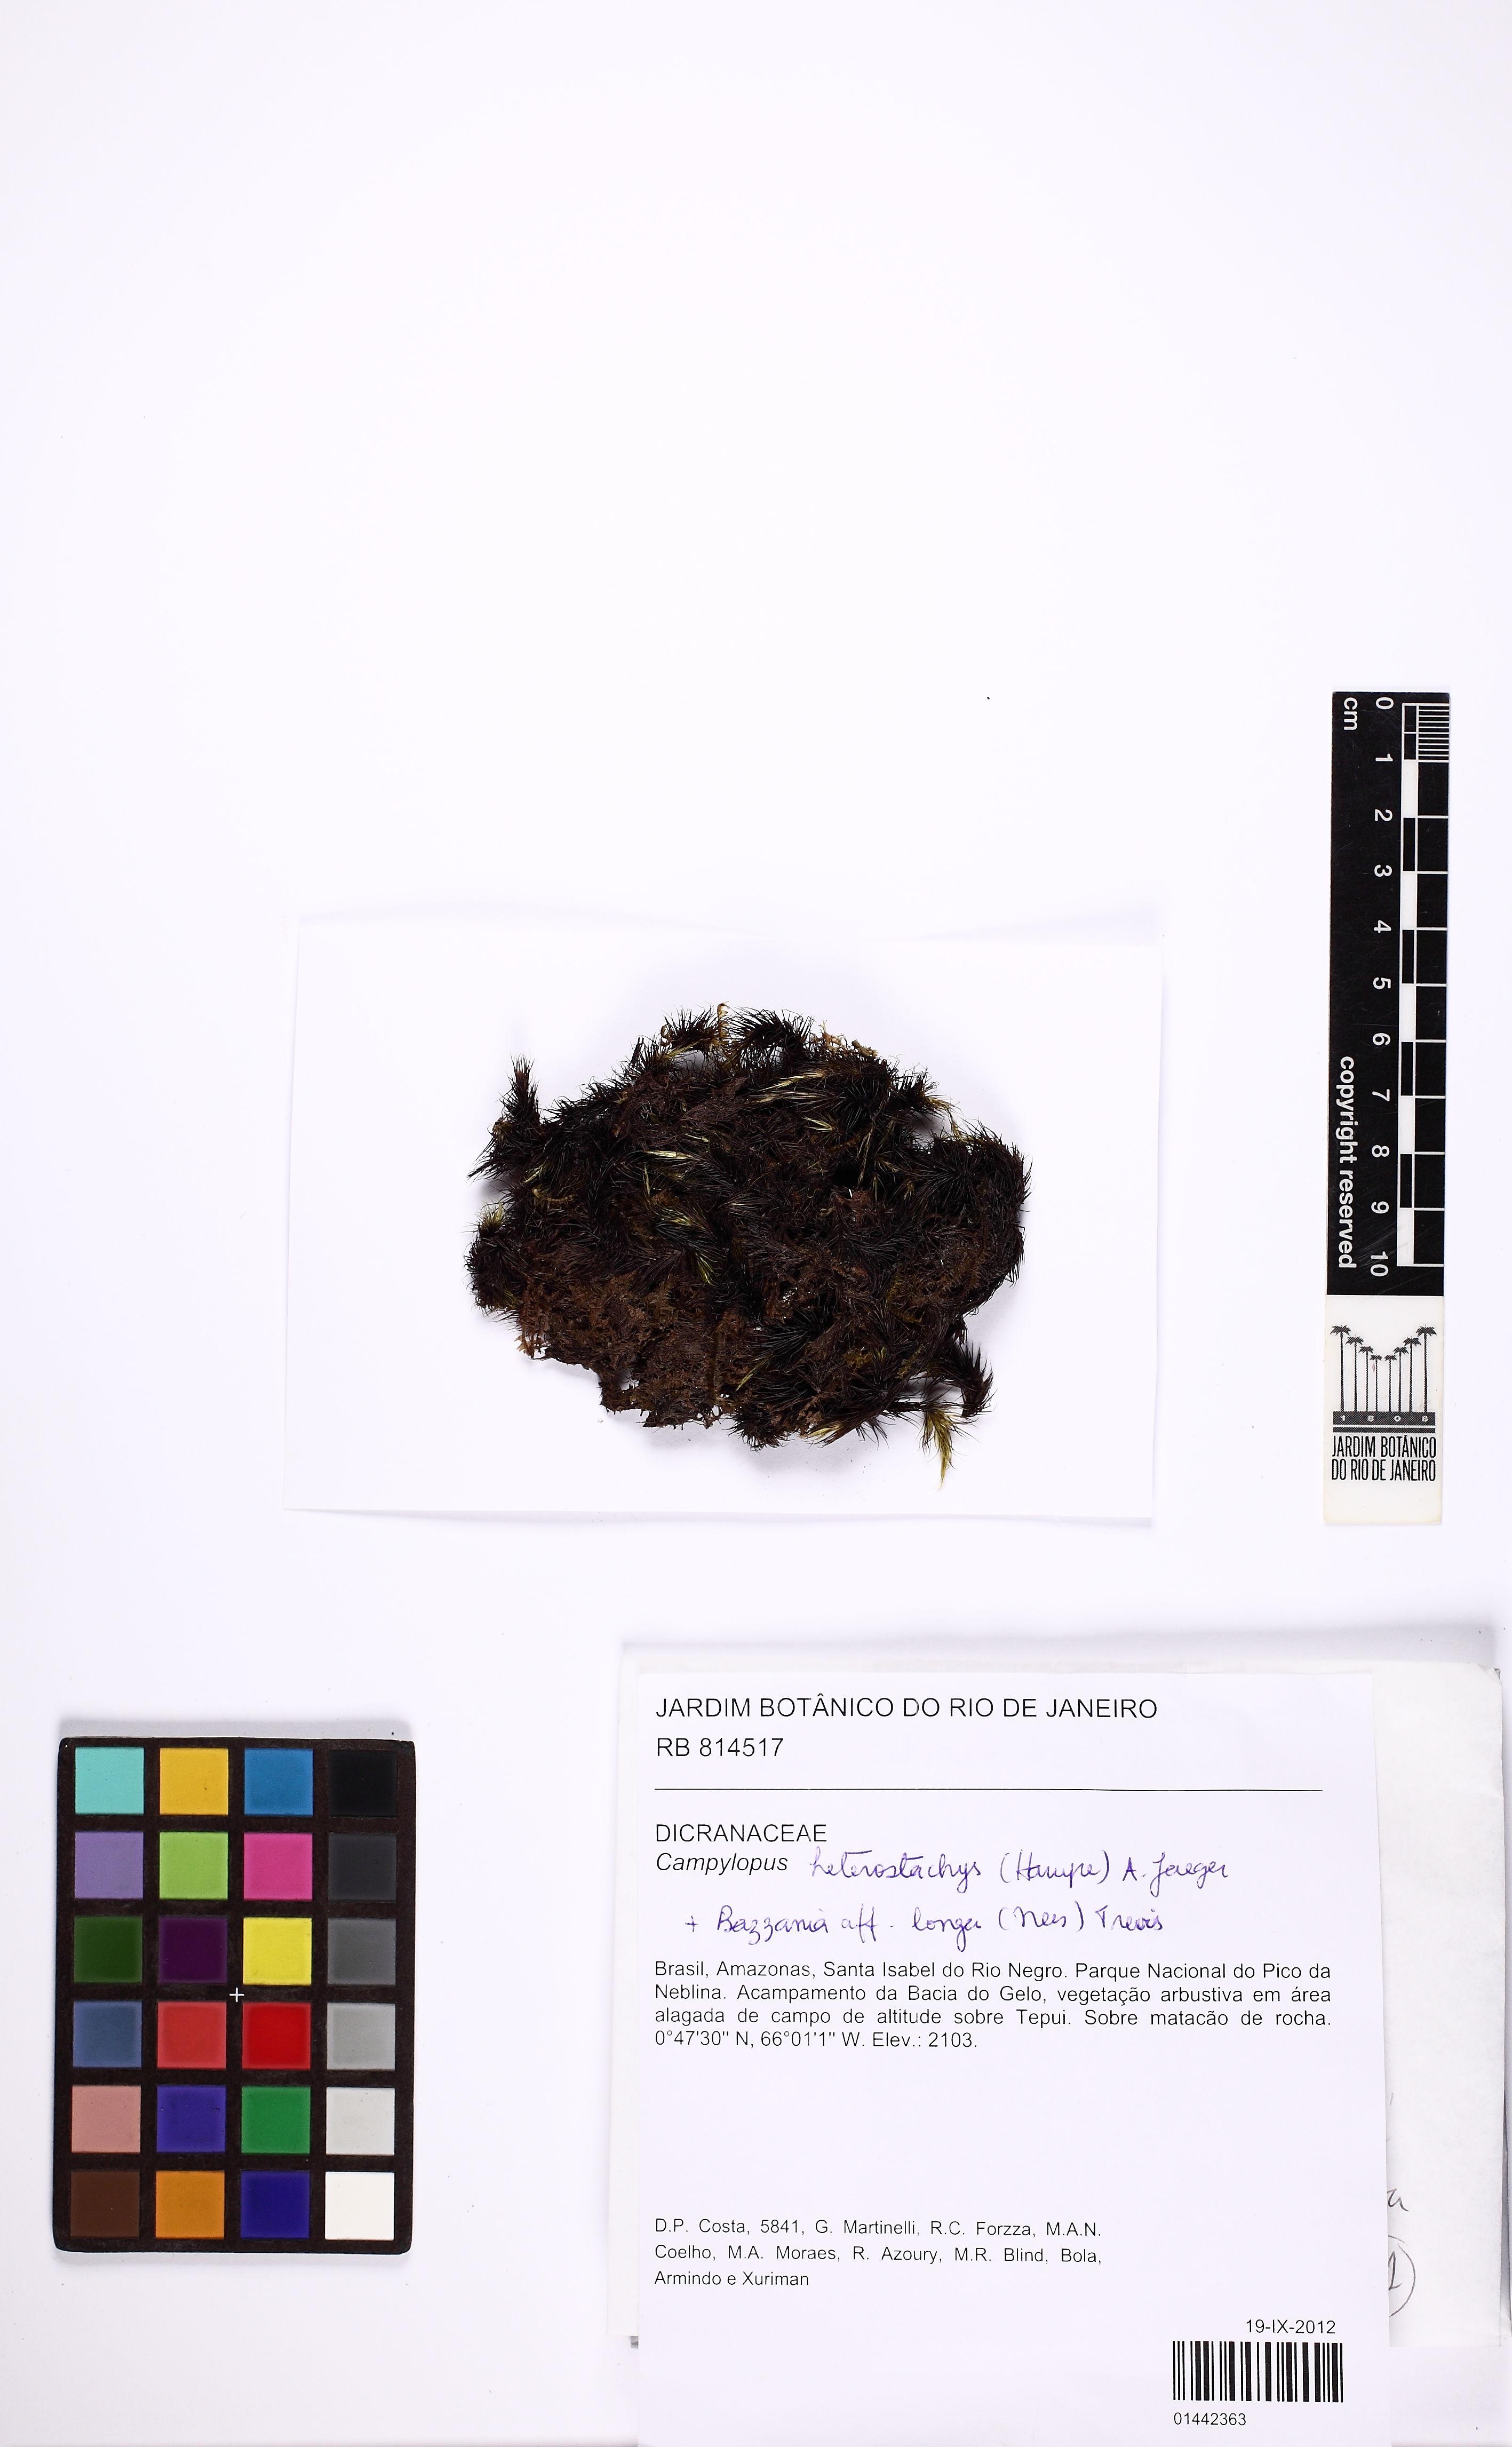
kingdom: Plantae
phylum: Bryophyta
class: Bryopsida
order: Dicranales
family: Leucobryaceae
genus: Campylopus
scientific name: Campylopus heterostachys
